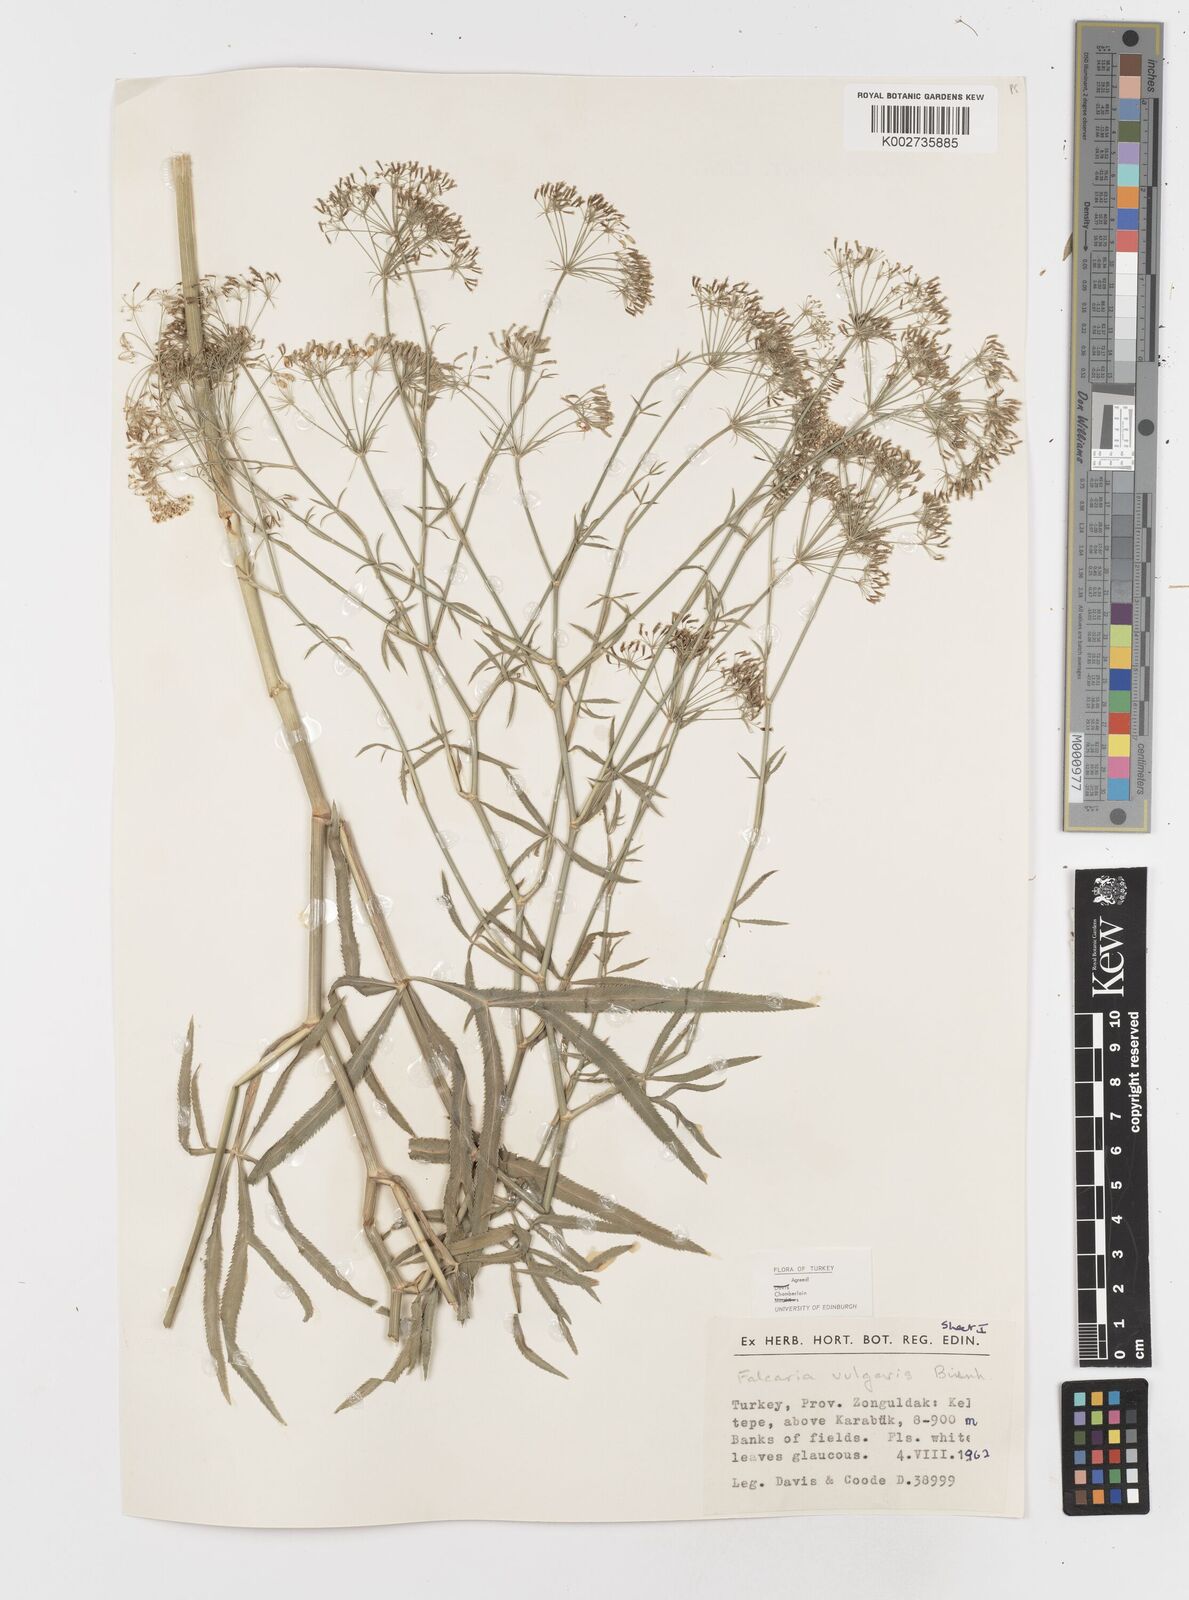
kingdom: Plantae
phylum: Tracheophyta
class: Magnoliopsida
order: Apiales
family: Apiaceae
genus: Falcaria
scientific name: Falcaria vulgaris
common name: Longleaf
